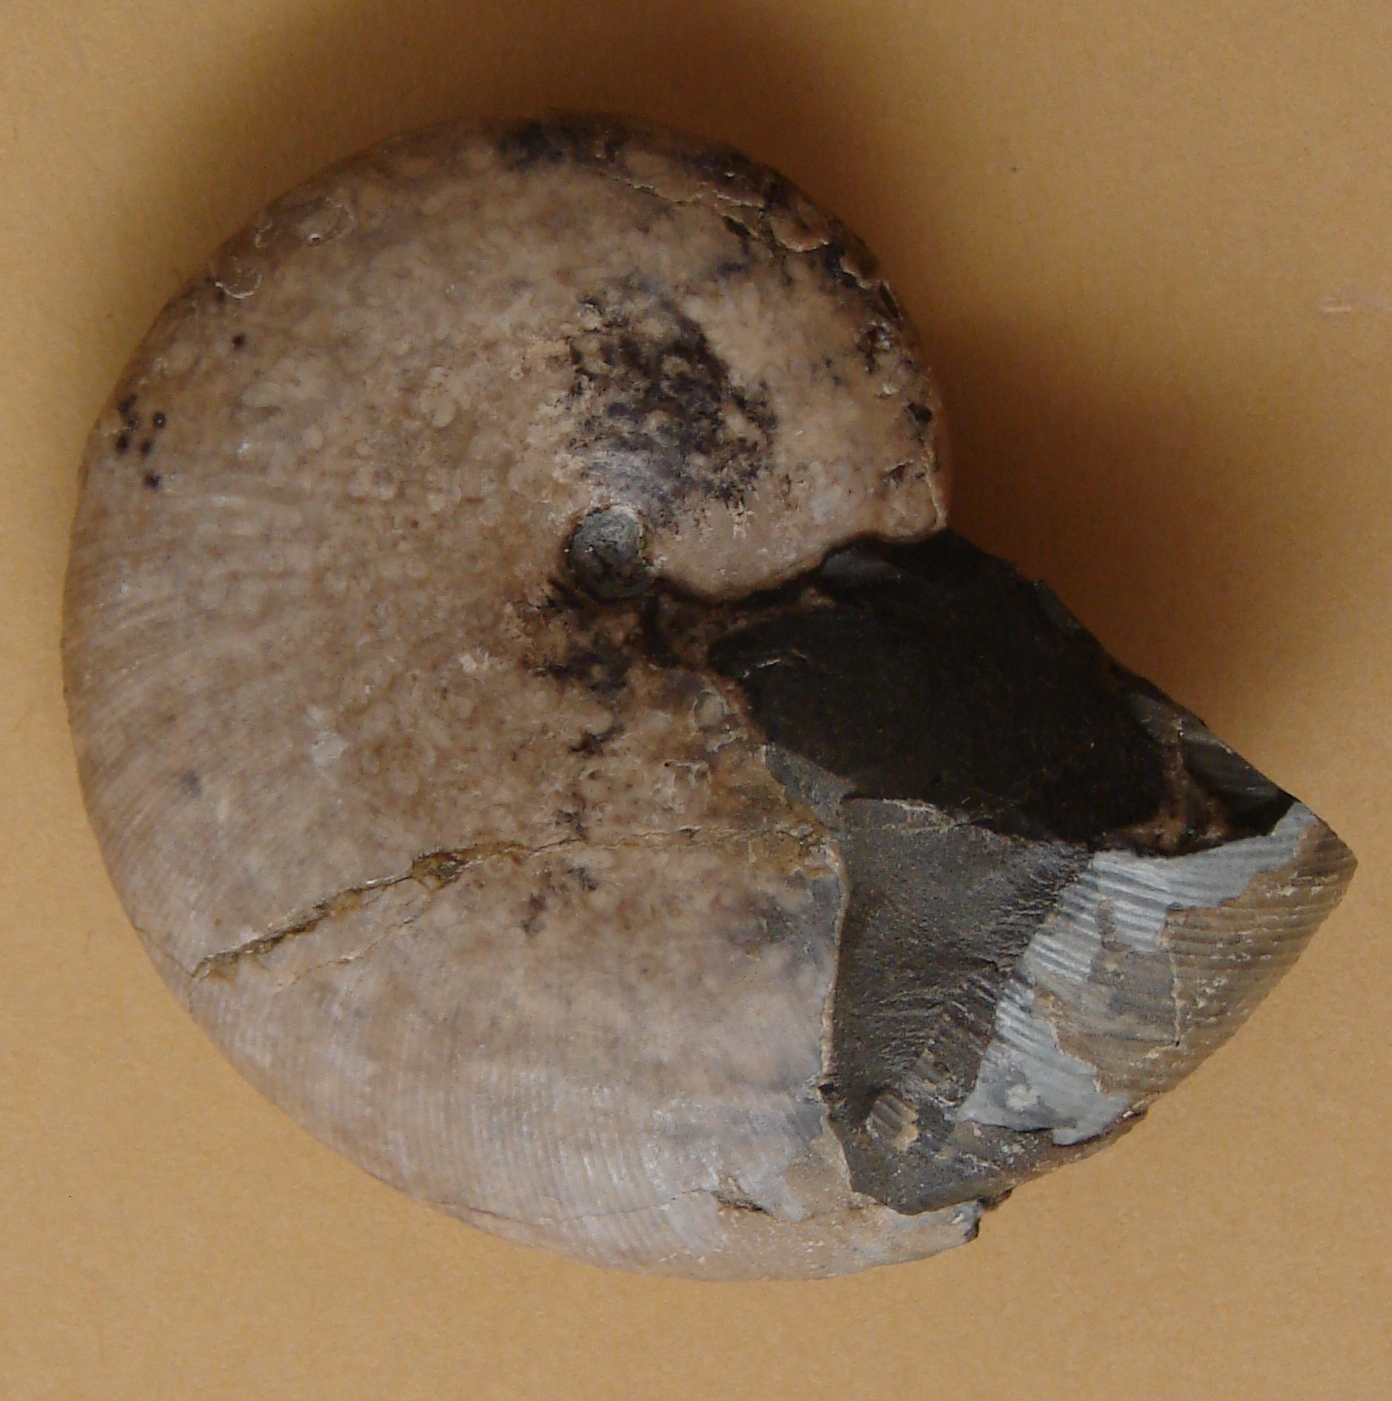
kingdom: Animalia
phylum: Mollusca
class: Cephalopoda
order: Phylloceratida
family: Phylloceratidae
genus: Phylloceras
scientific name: Phylloceras heterophyllum
